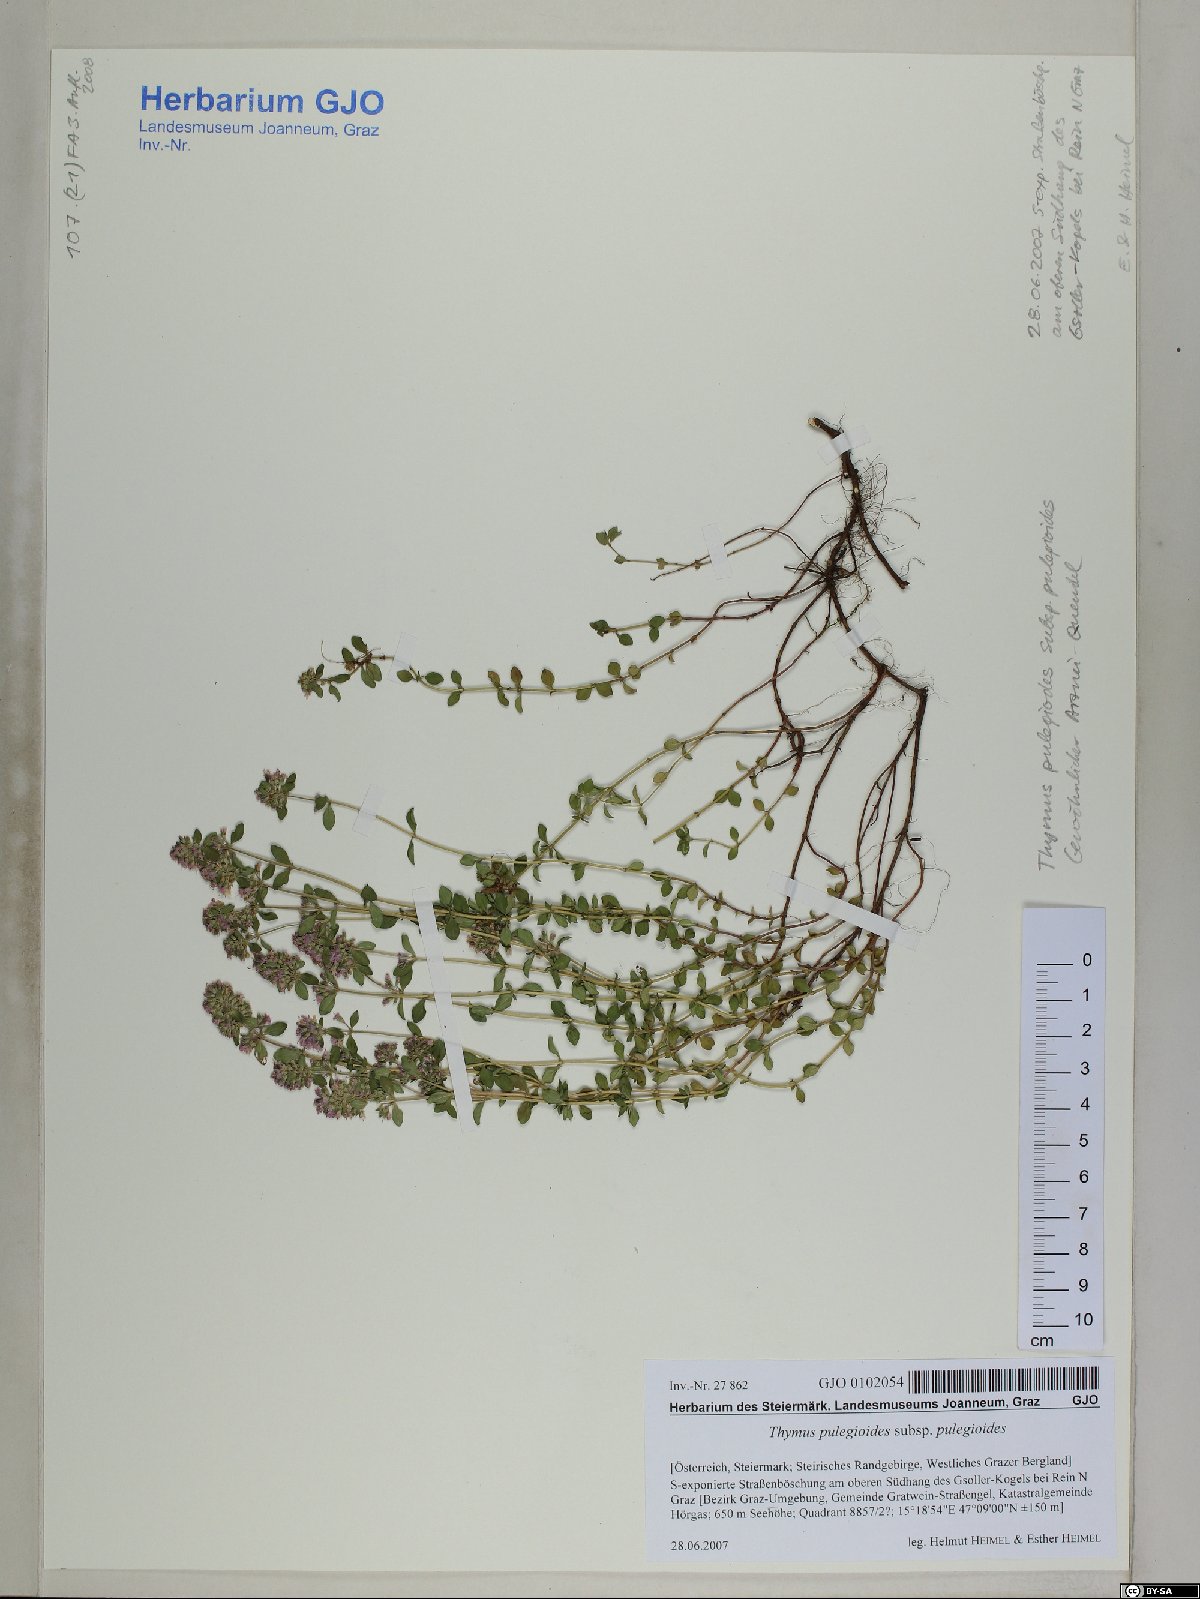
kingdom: Plantae
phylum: Tracheophyta
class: Magnoliopsida
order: Lamiales
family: Lamiaceae
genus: Thymus
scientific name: Thymus pulegioides
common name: Large thyme
